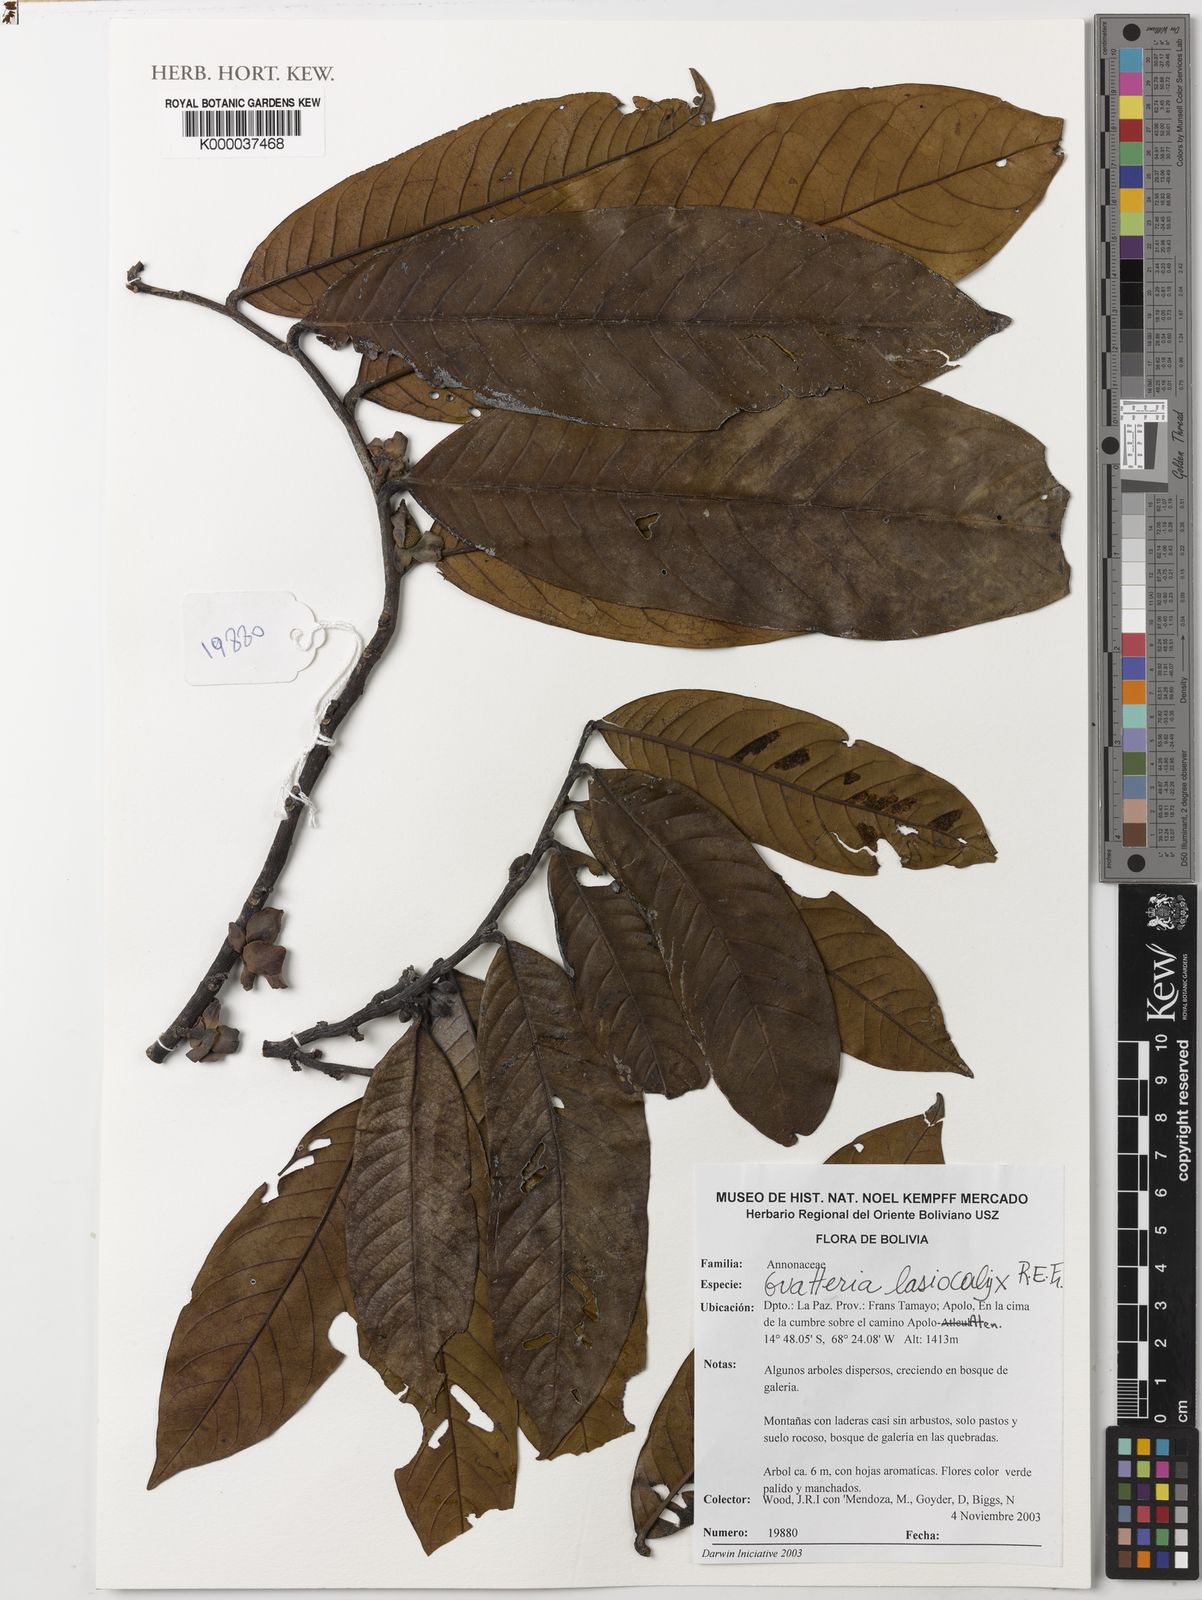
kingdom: Plantae
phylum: Tracheophyta
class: Magnoliopsida
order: Magnoliales
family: Annonaceae
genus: Guatteria
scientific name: Guatteria glauca
